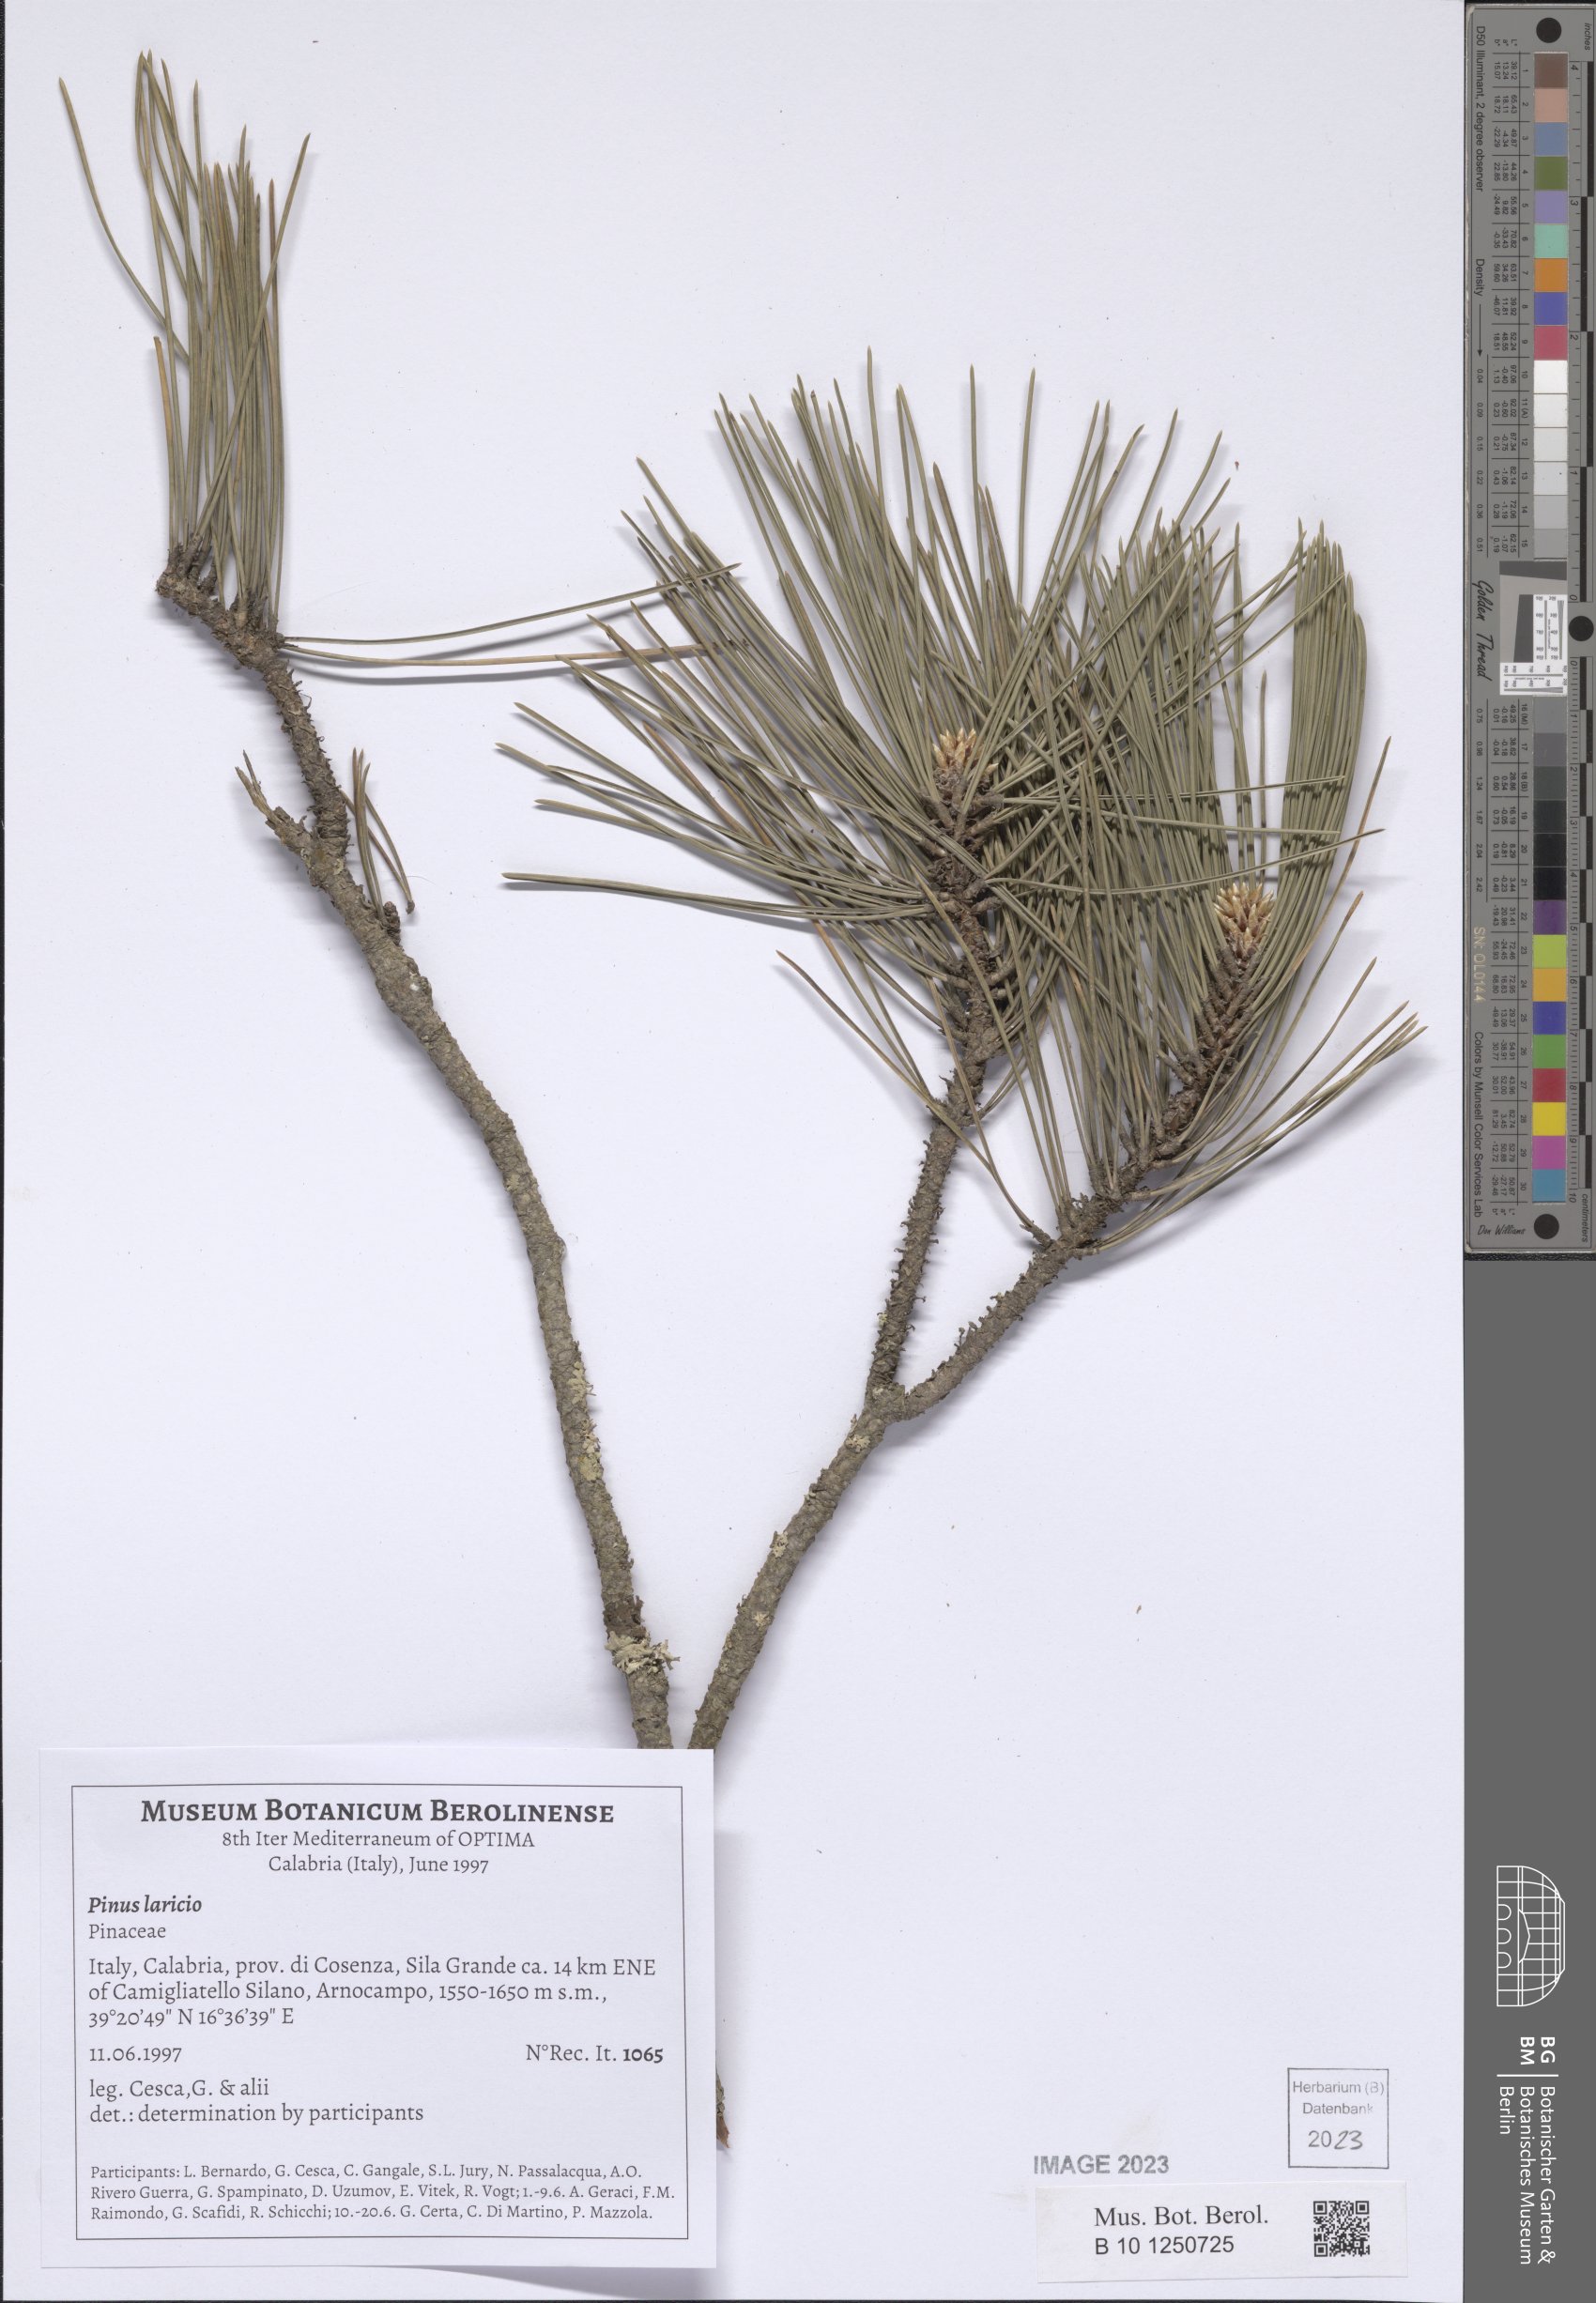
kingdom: Plantae
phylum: Tracheophyta
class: Pinopsida
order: Pinales
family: Pinaceae
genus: Pinus
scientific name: Pinus pinaster
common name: Maritime pine
